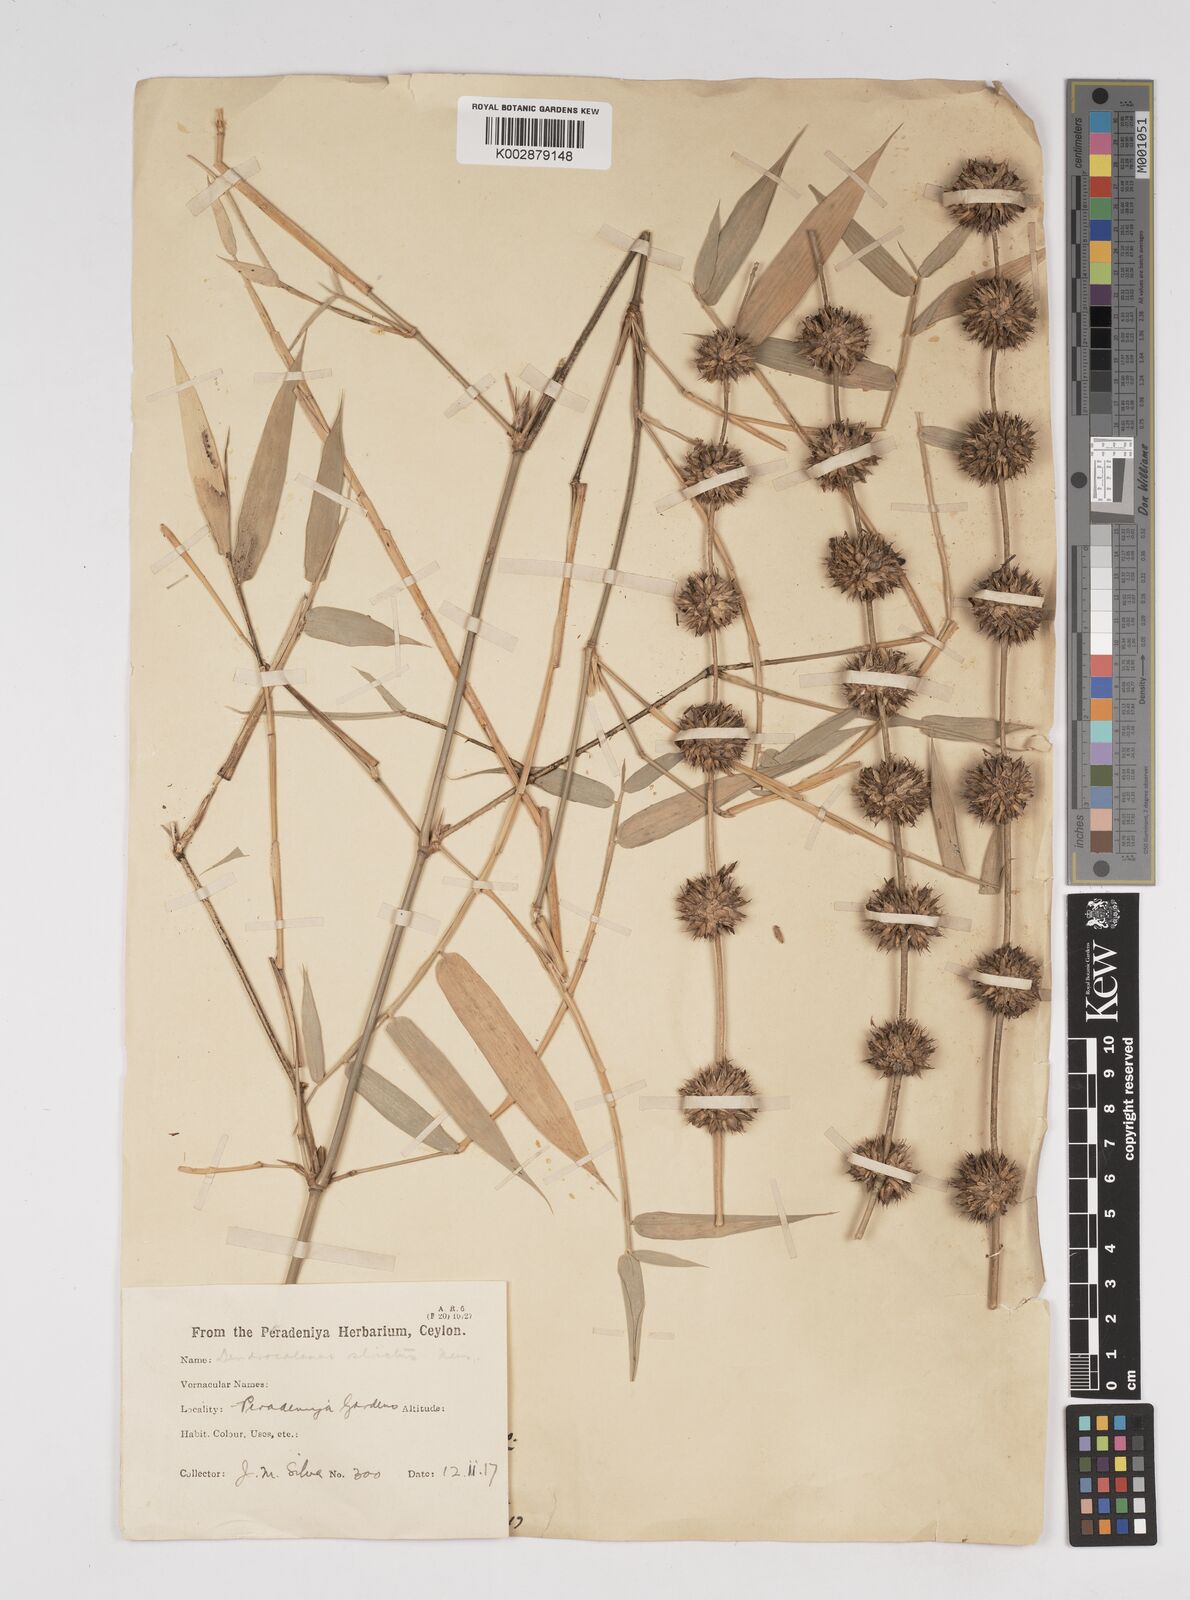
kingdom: Plantae
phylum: Tracheophyta
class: Liliopsida
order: Poales
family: Poaceae
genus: Dendrocalamus
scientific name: Dendrocalamus
